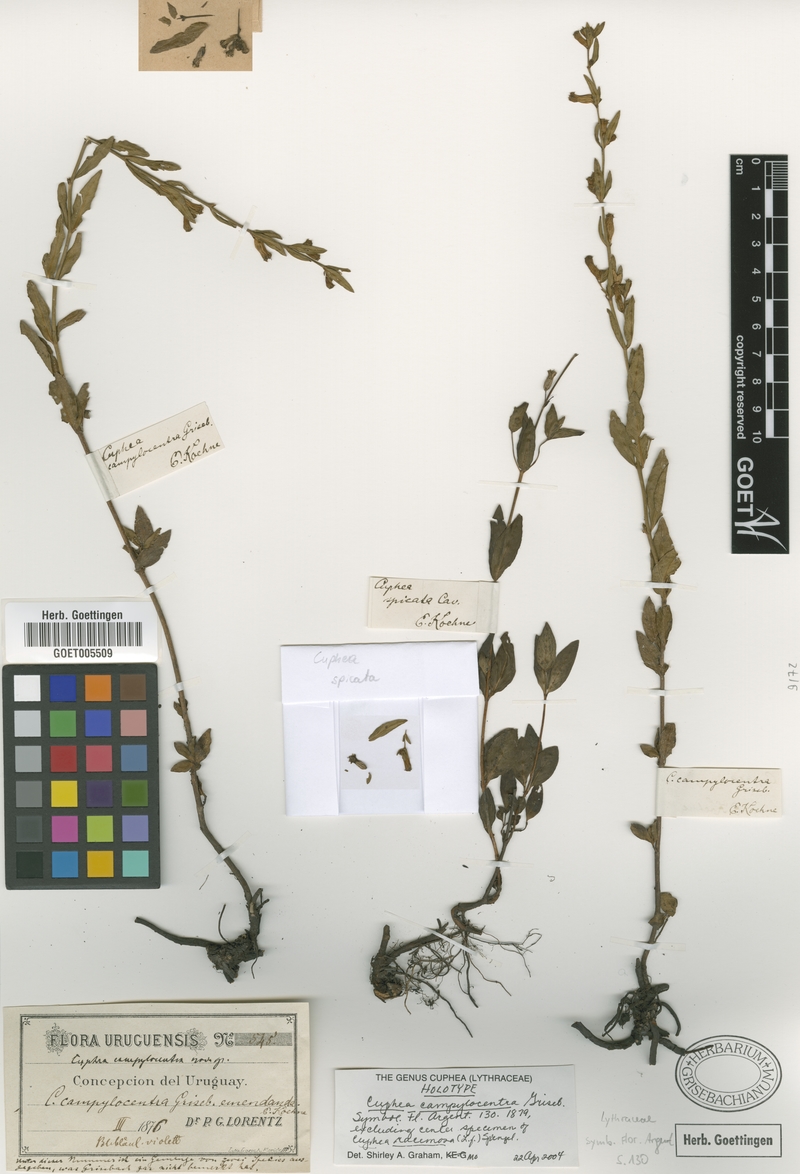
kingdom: Plantae
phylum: Tracheophyta
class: Magnoliopsida
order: Myrtales
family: Lythraceae
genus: Cuphea
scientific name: Cuphea campylocentra
